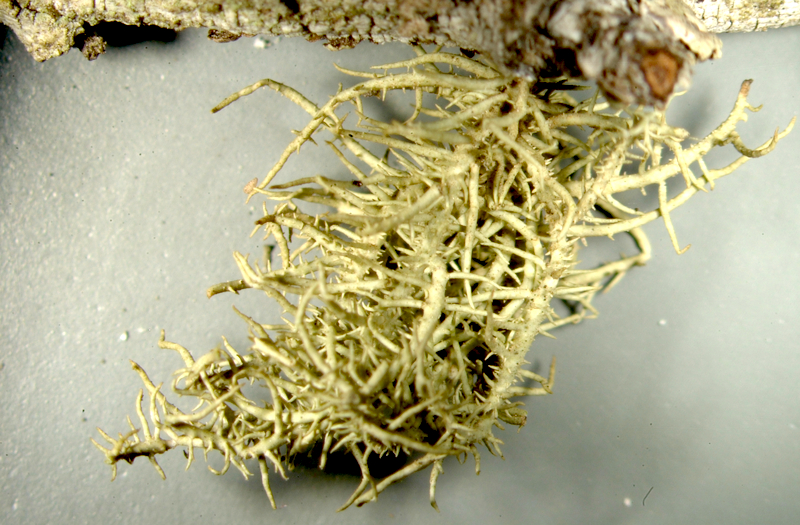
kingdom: Fungi
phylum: Ascomycota
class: Lecanoromycetes
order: Lecanorales
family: Parmeliaceae
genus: Usnea
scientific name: Usnea
